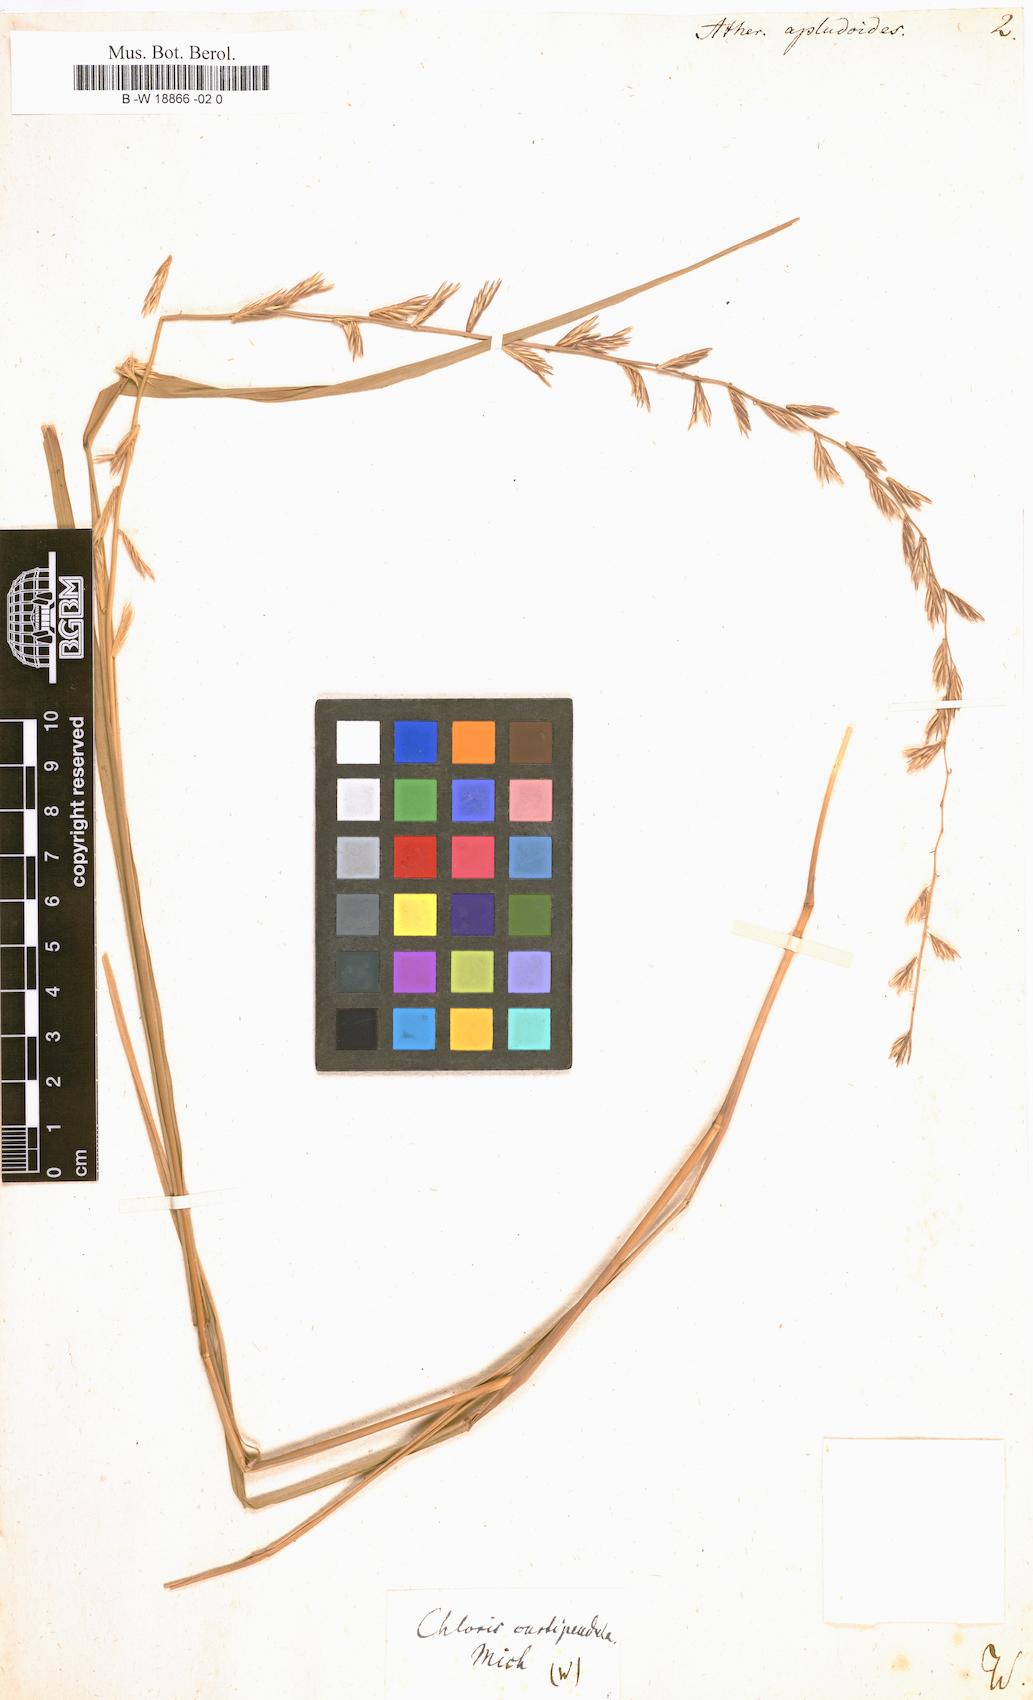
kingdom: Plantae
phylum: Tracheophyta
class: Liliopsida
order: Poales
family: Poaceae
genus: Bouteloua
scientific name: Bouteloua curtipendula
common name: Side-oats grama
